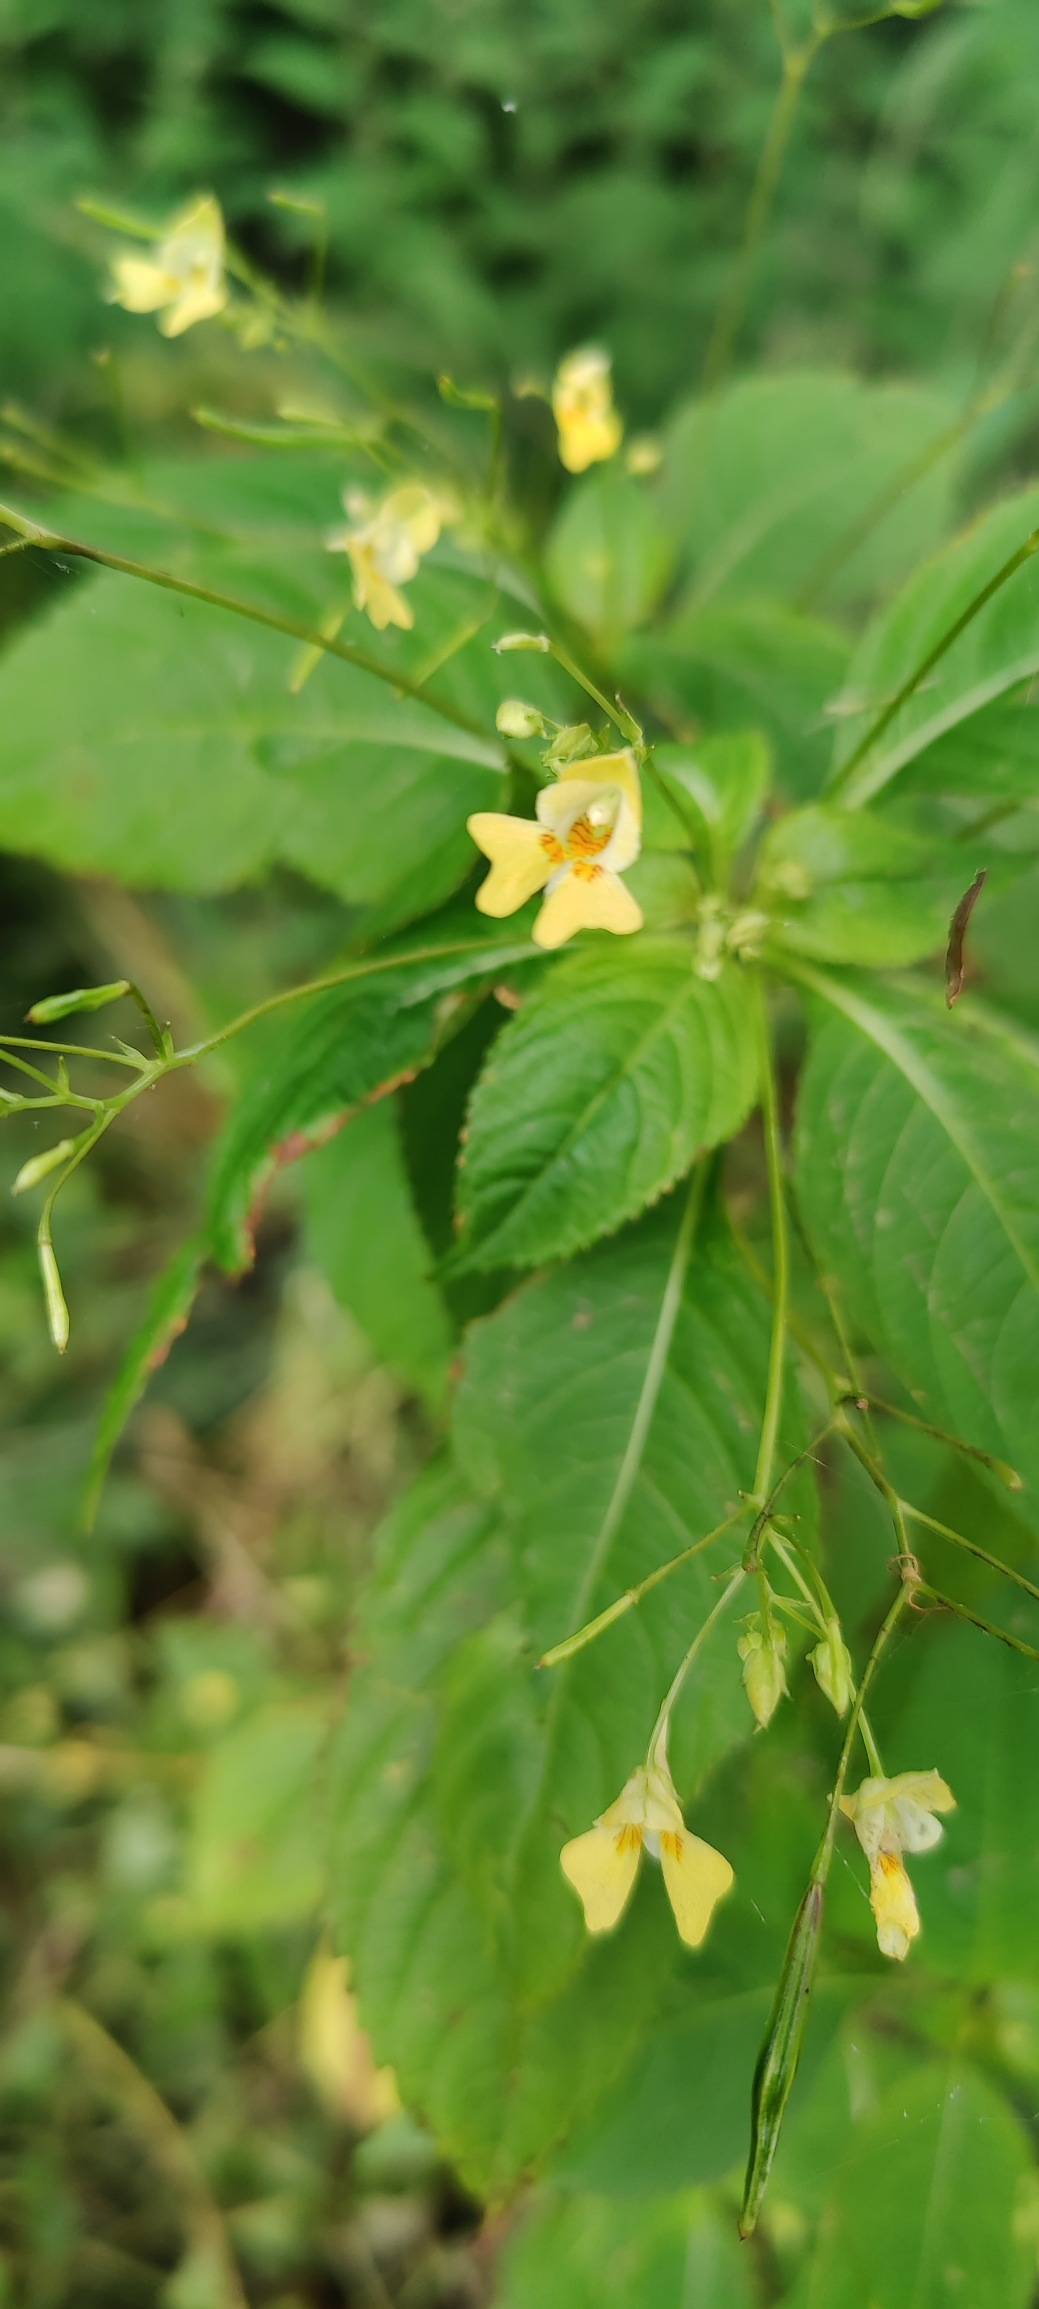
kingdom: Plantae
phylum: Tracheophyta
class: Magnoliopsida
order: Ericales
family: Balsaminaceae
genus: Impatiens
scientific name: Impatiens parviflora
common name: Småblomstret balsamin
